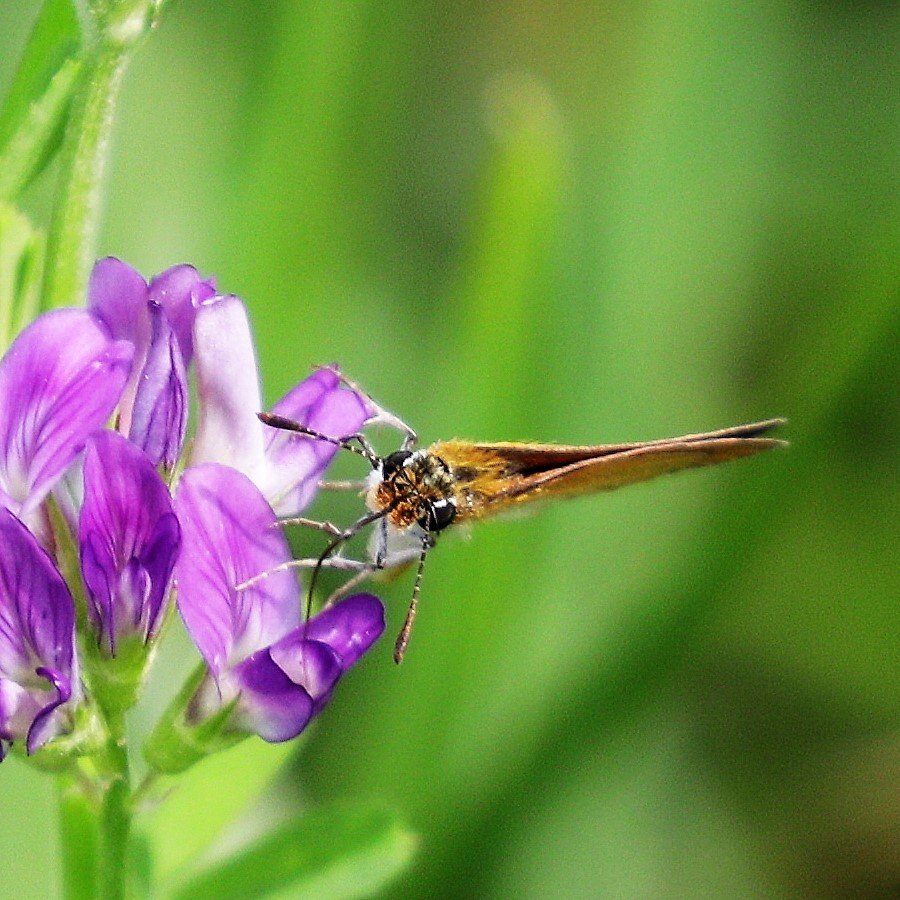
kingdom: Animalia
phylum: Arthropoda
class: Insecta
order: Lepidoptera
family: Hesperiidae
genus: Ancyloxypha
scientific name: Ancyloxypha numitor
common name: Least Skipper
